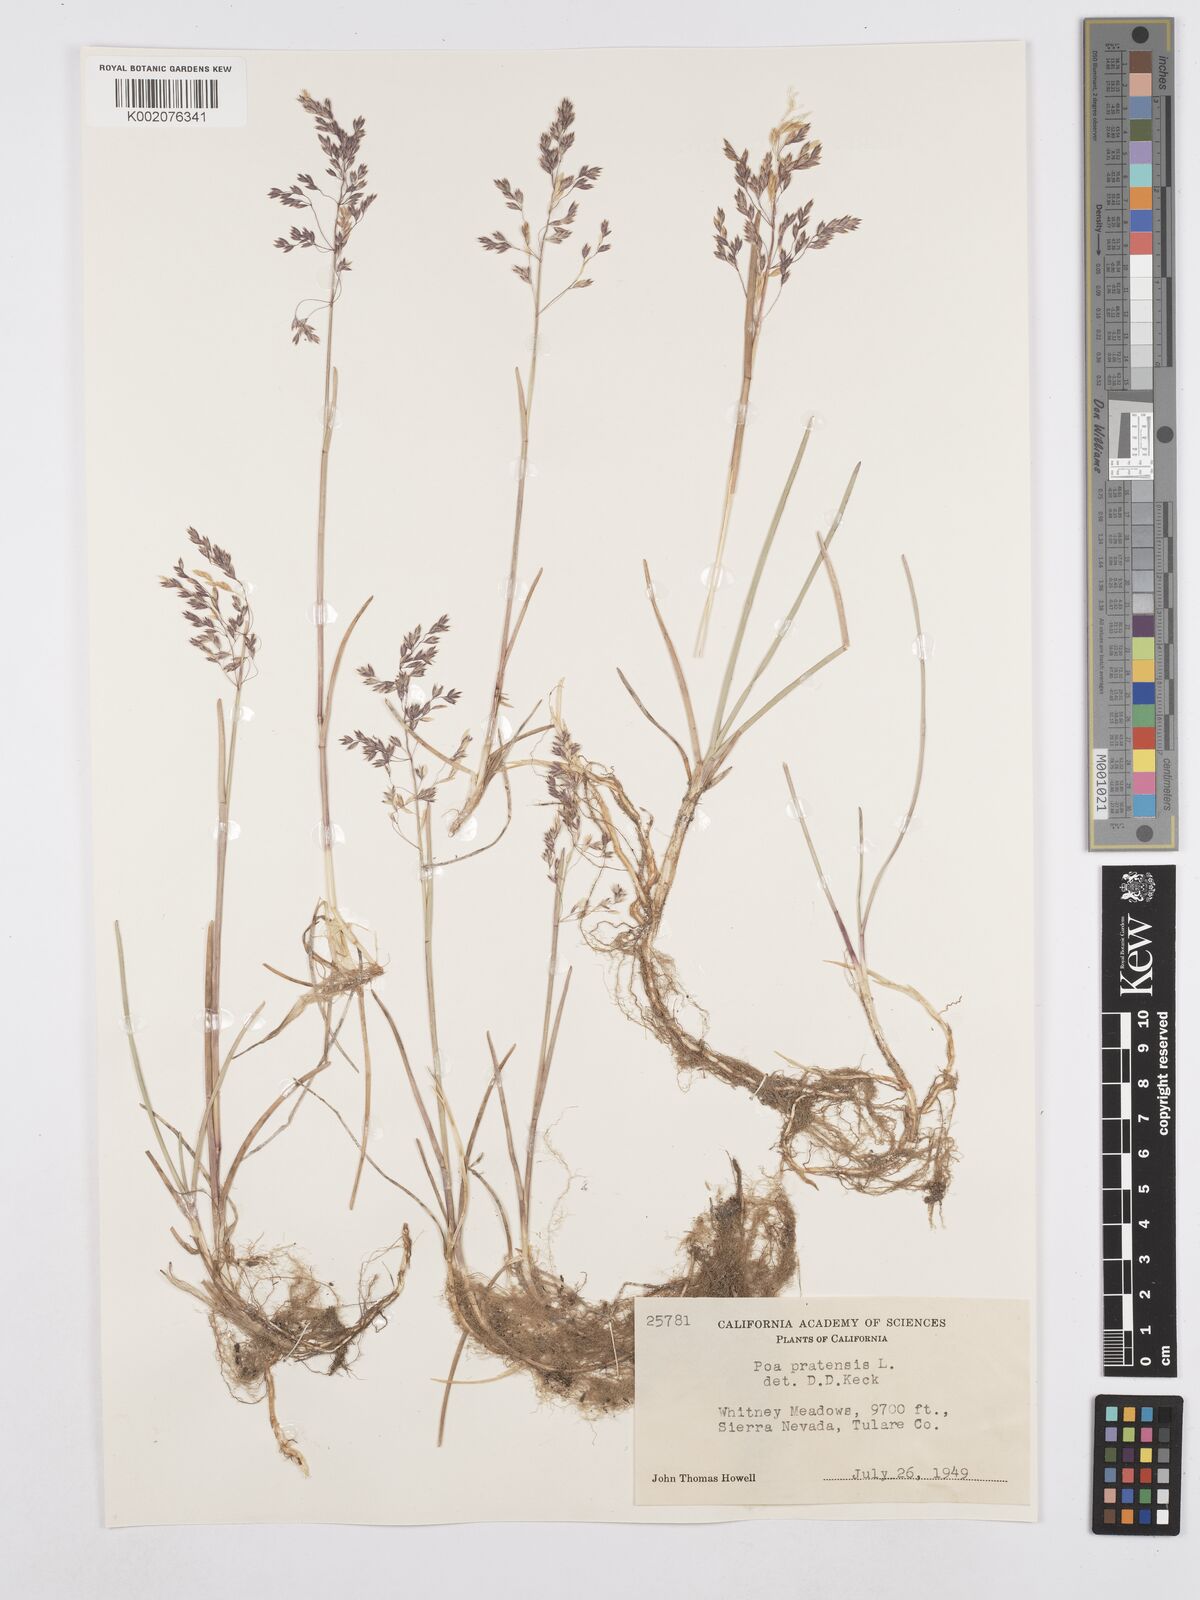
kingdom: Plantae
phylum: Tracheophyta
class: Liliopsida
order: Poales
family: Poaceae
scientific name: Poaceae
